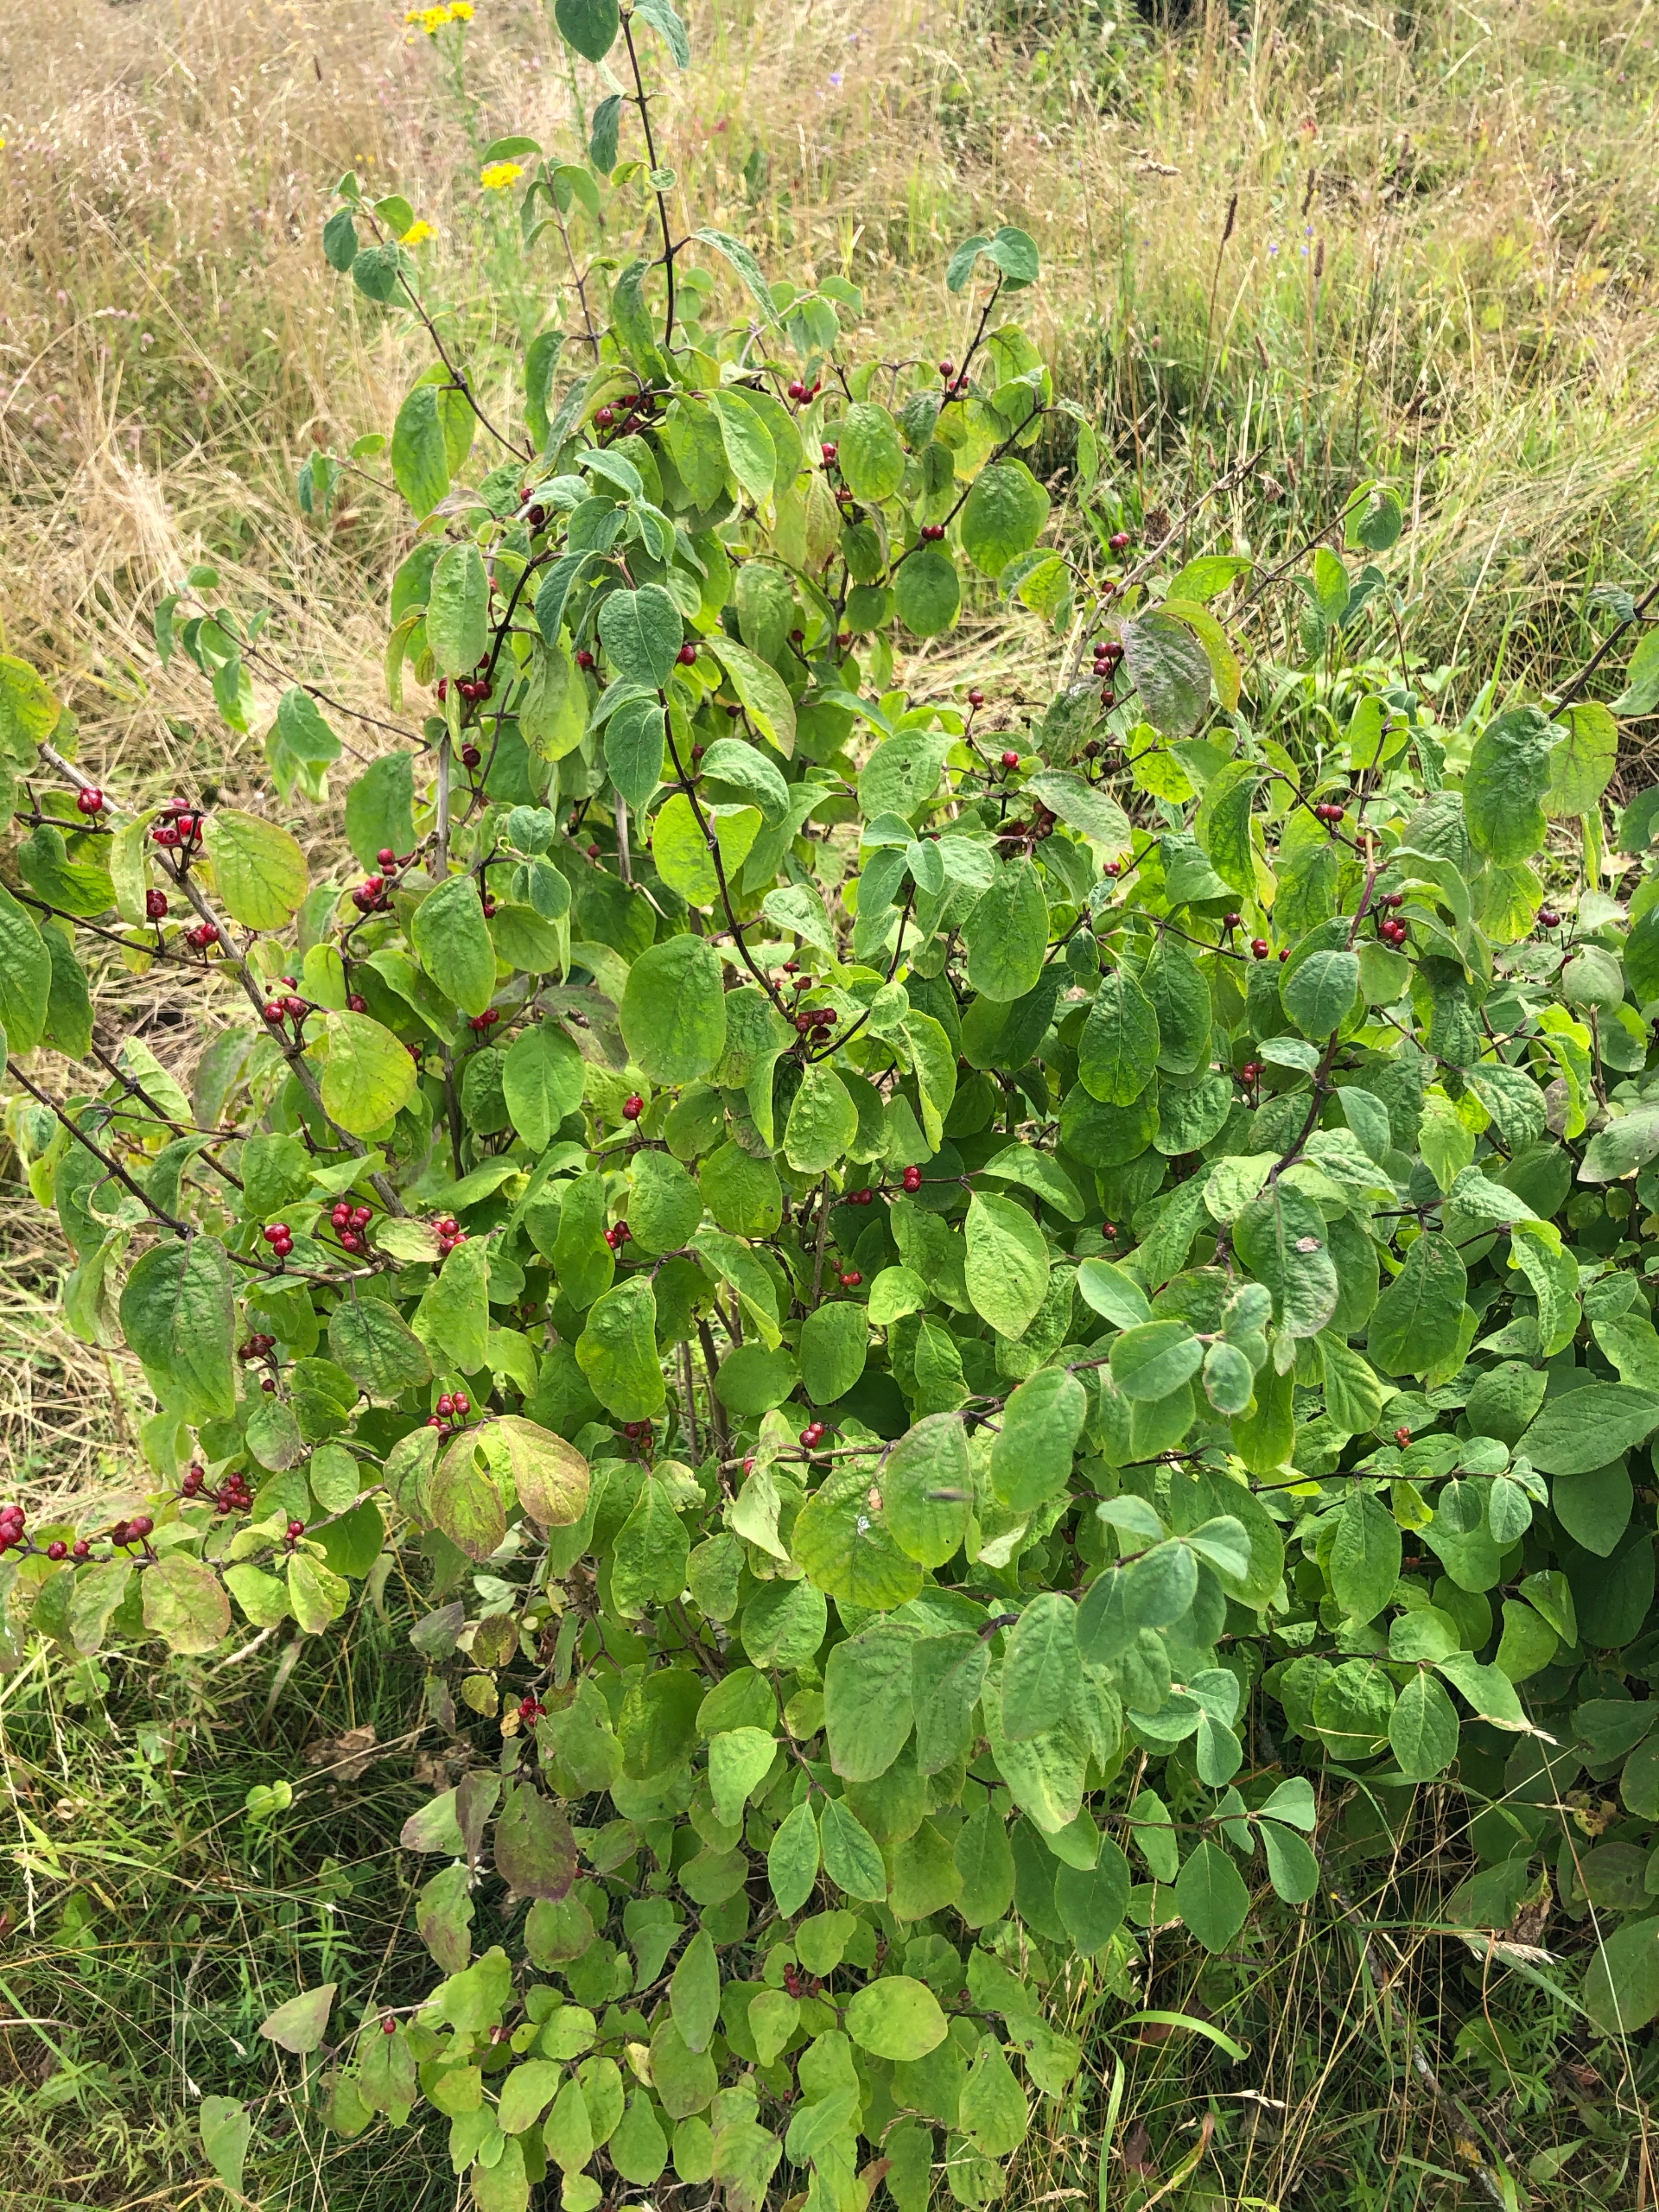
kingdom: Plantae
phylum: Tracheophyta
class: Magnoliopsida
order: Dipsacales
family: Caprifoliaceae
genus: Lonicera
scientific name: Lonicera xylosteum
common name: Dunet gedeblad
